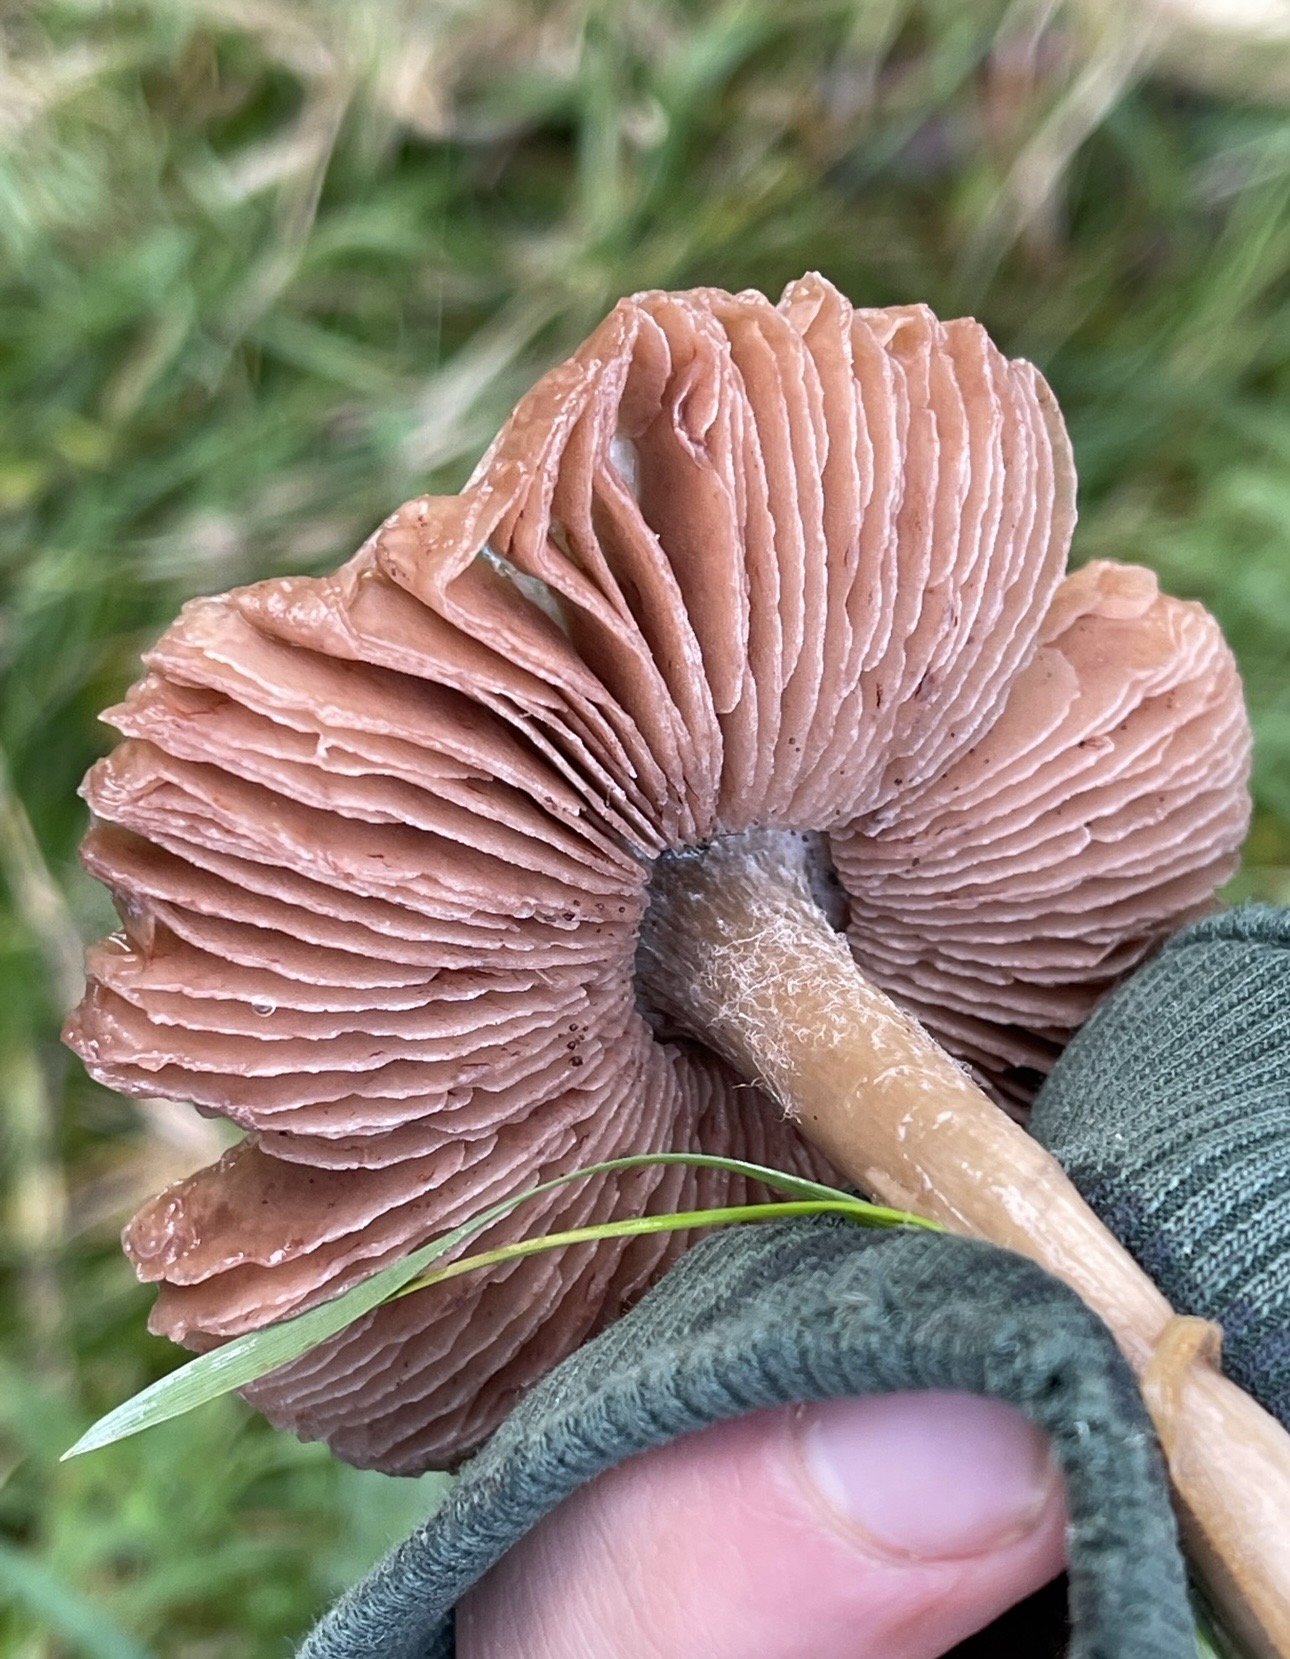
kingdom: Fungi
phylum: Basidiomycota
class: Agaricomycetes
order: Agaricales
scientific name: Agaricales
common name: champignonordenen
